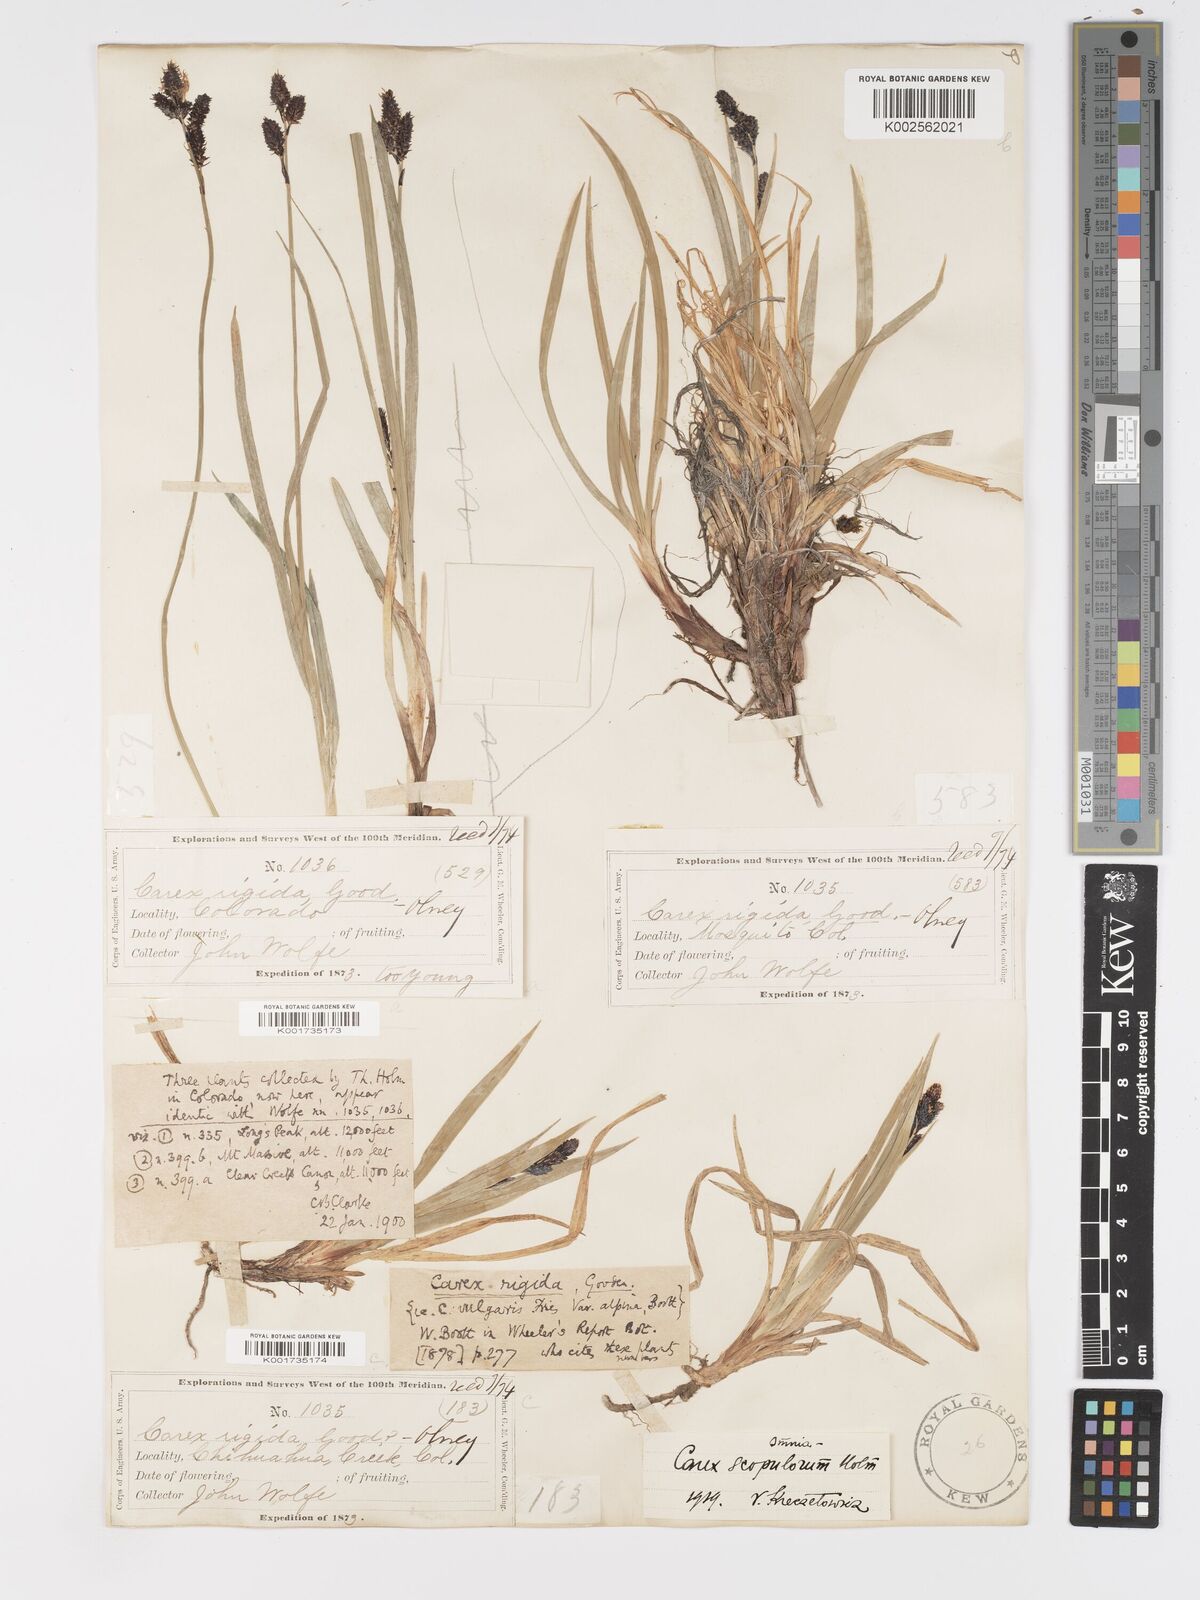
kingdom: Plantae
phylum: Tracheophyta
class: Liliopsida
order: Poales
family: Cyperaceae
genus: Carex
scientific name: Carex scopulorum
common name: Holm's rocky mountain sedge
